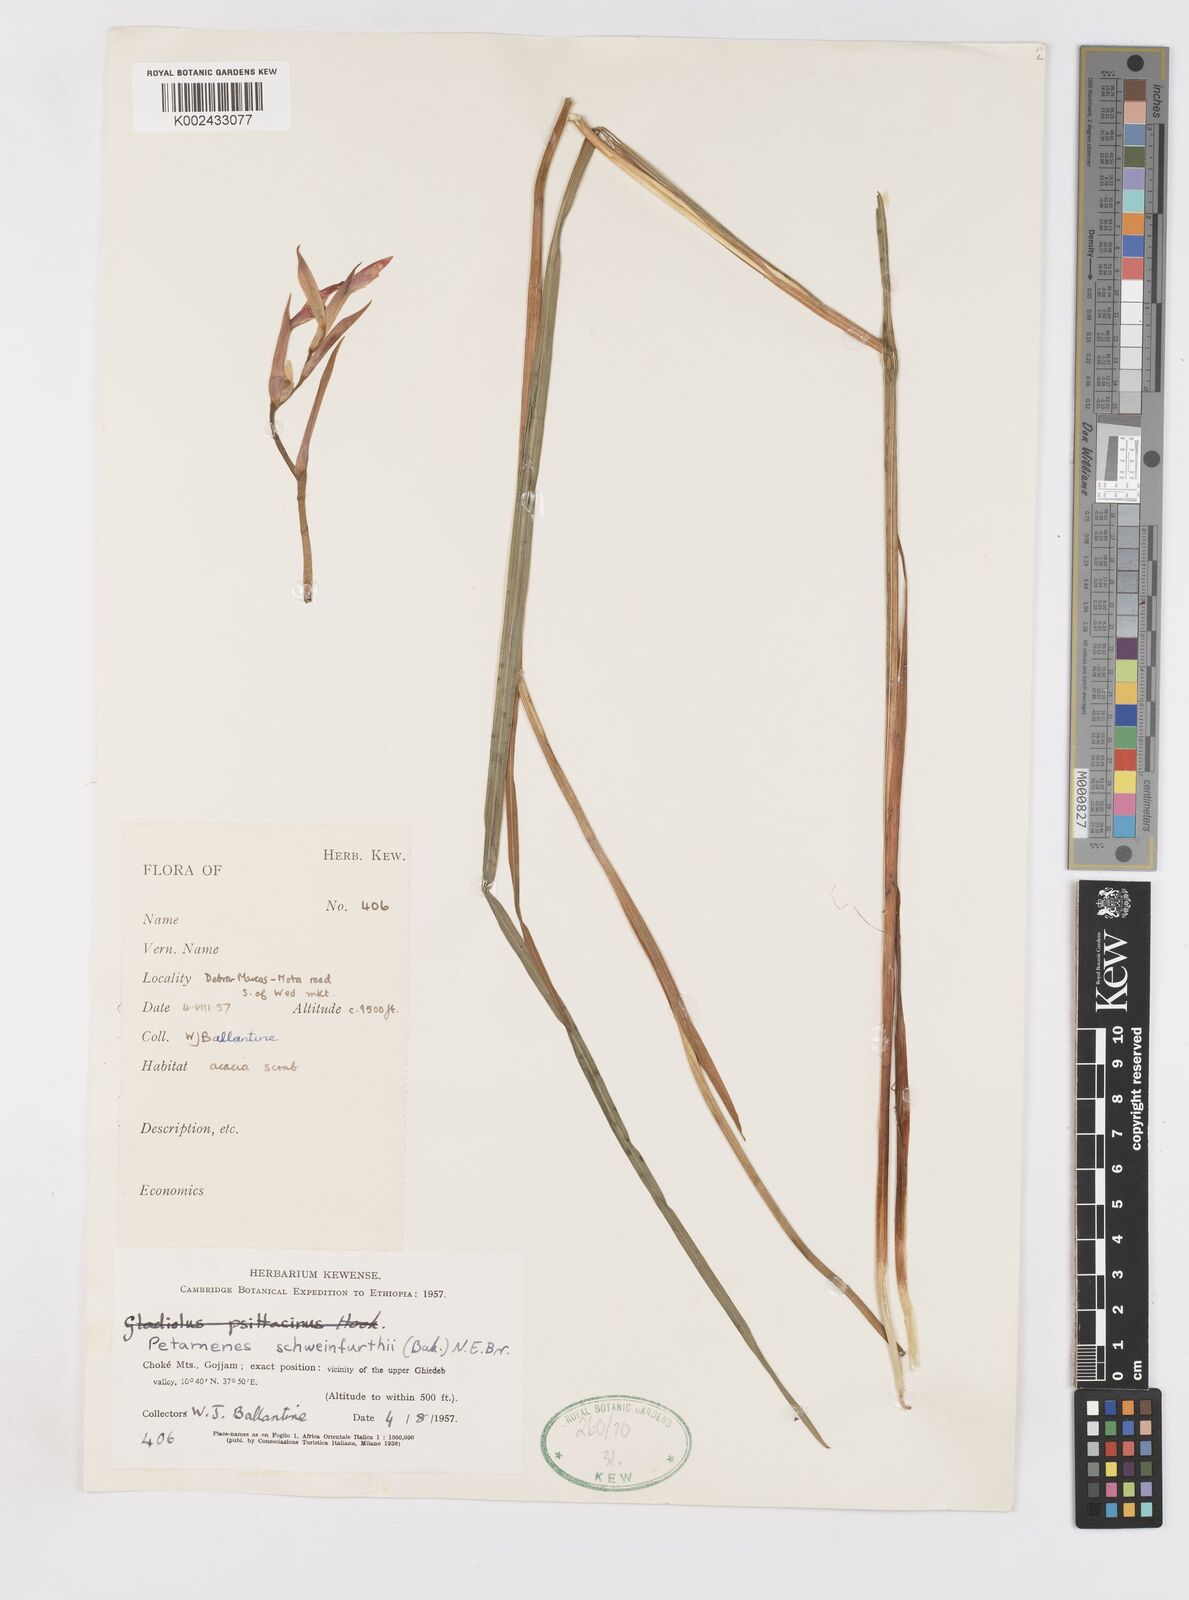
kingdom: Plantae
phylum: Tracheophyta
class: Liliopsida
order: Asparagales
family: Iridaceae
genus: Gladiolus
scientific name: Gladiolus schweinfurthii
